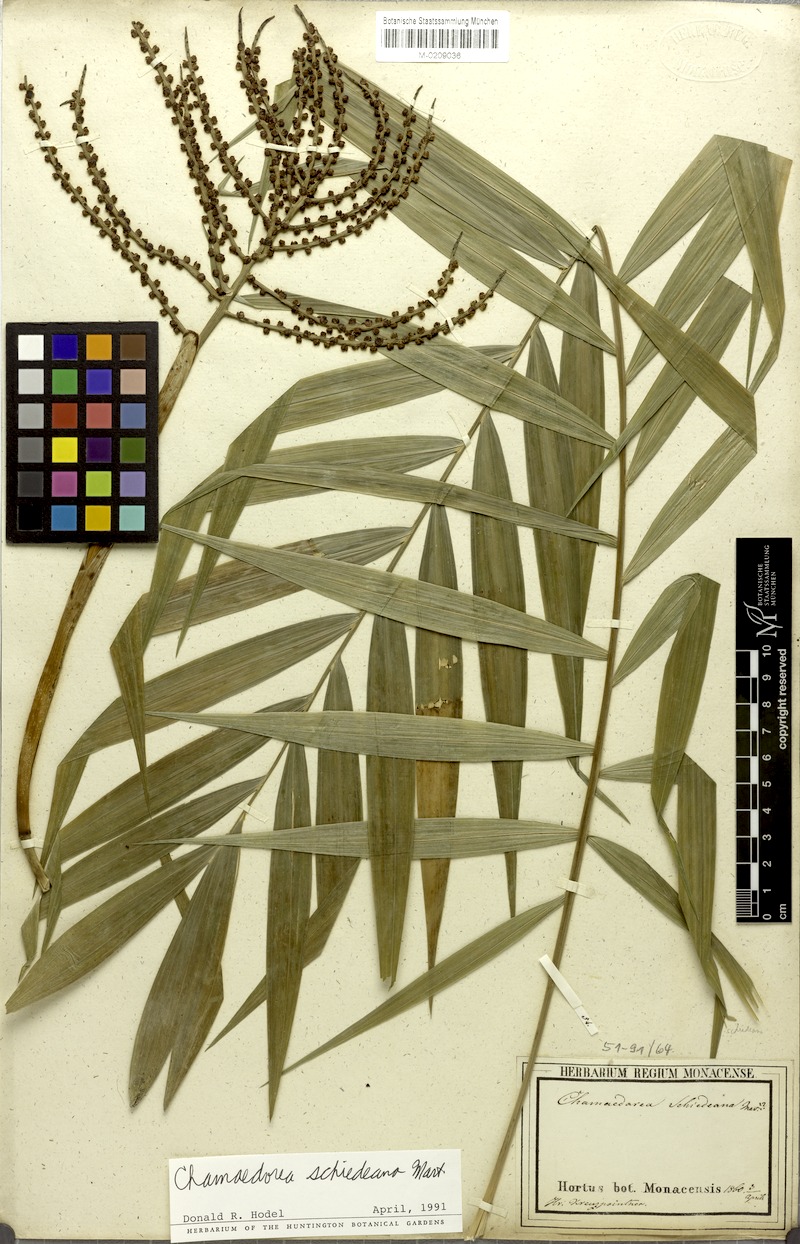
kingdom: Plantae
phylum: Tracheophyta
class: Liliopsida
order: Arecales
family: Arecaceae
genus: Chamaedorea
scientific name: Chamaedorea schiedeana
